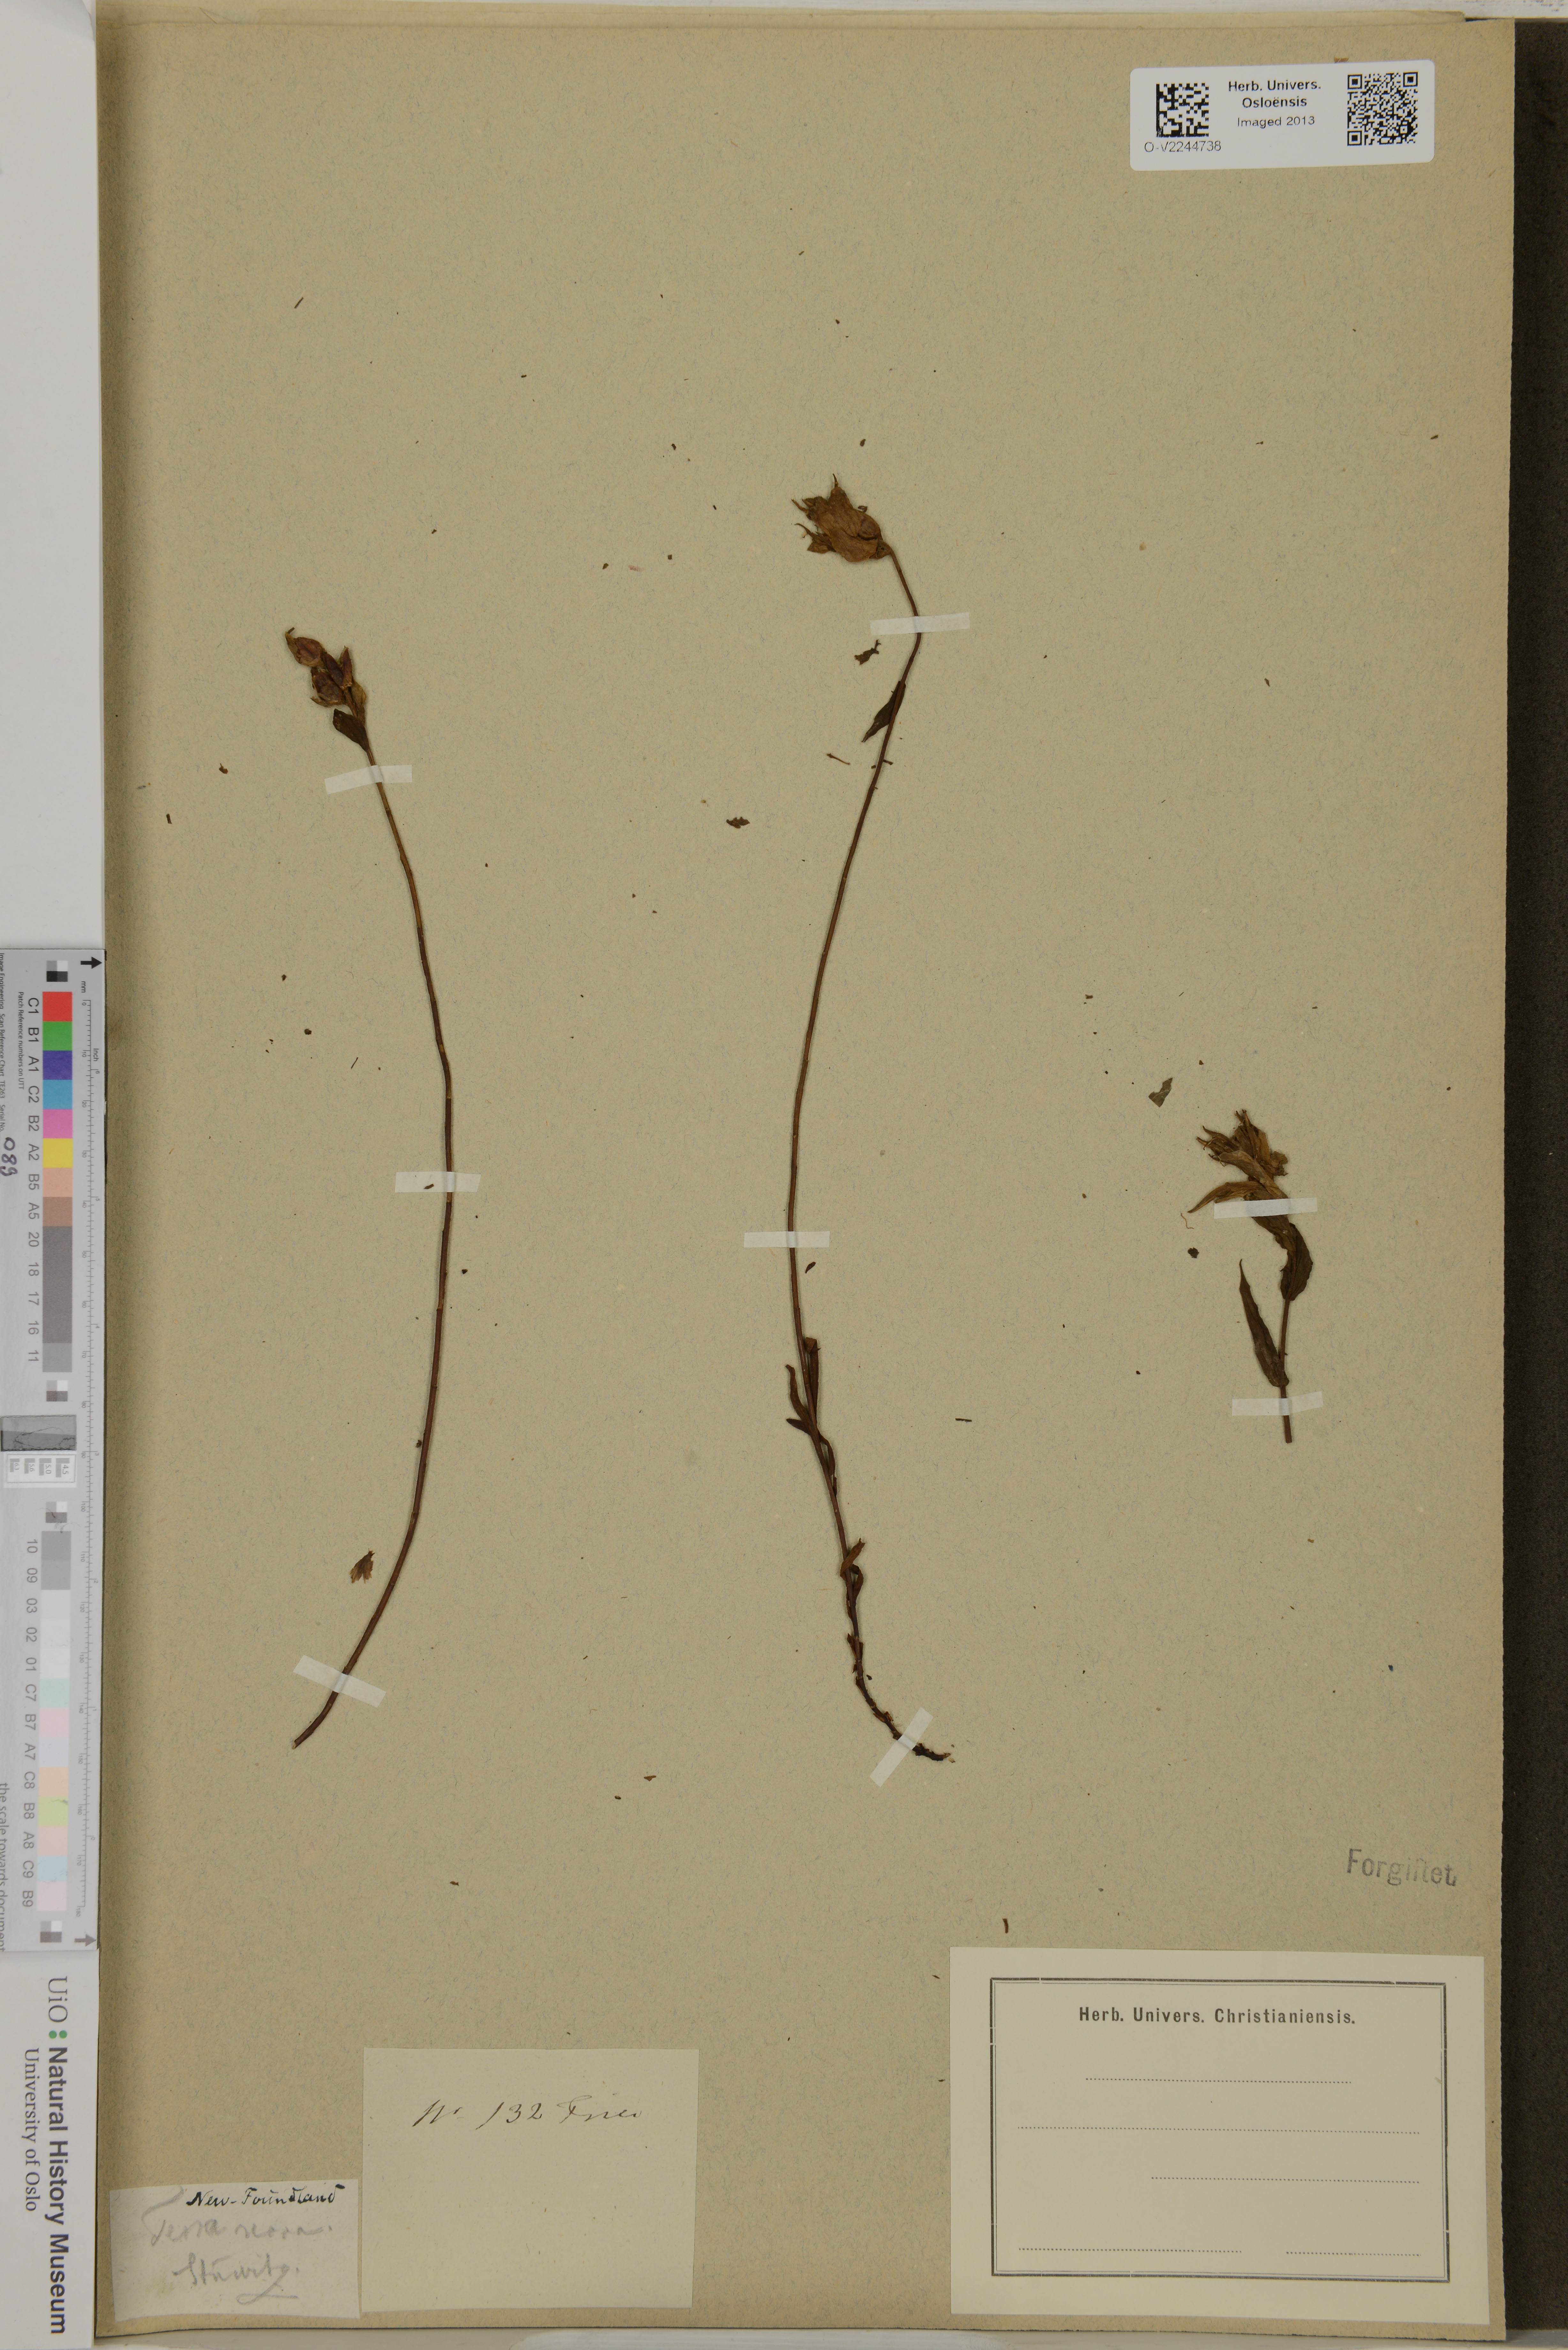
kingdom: Plantae
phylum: Tracheophyta
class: Magnoliopsida
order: Lamiales
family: Scrophulariaceae
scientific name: Scrophulariaceae
